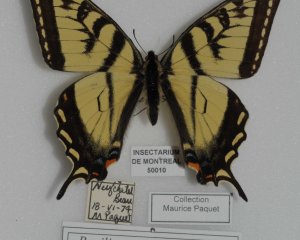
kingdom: Animalia
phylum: Arthropoda
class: Insecta
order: Lepidoptera
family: Papilionidae
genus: Pterourus
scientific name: Pterourus canadensis
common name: Canadian Tiger Swallowtail
